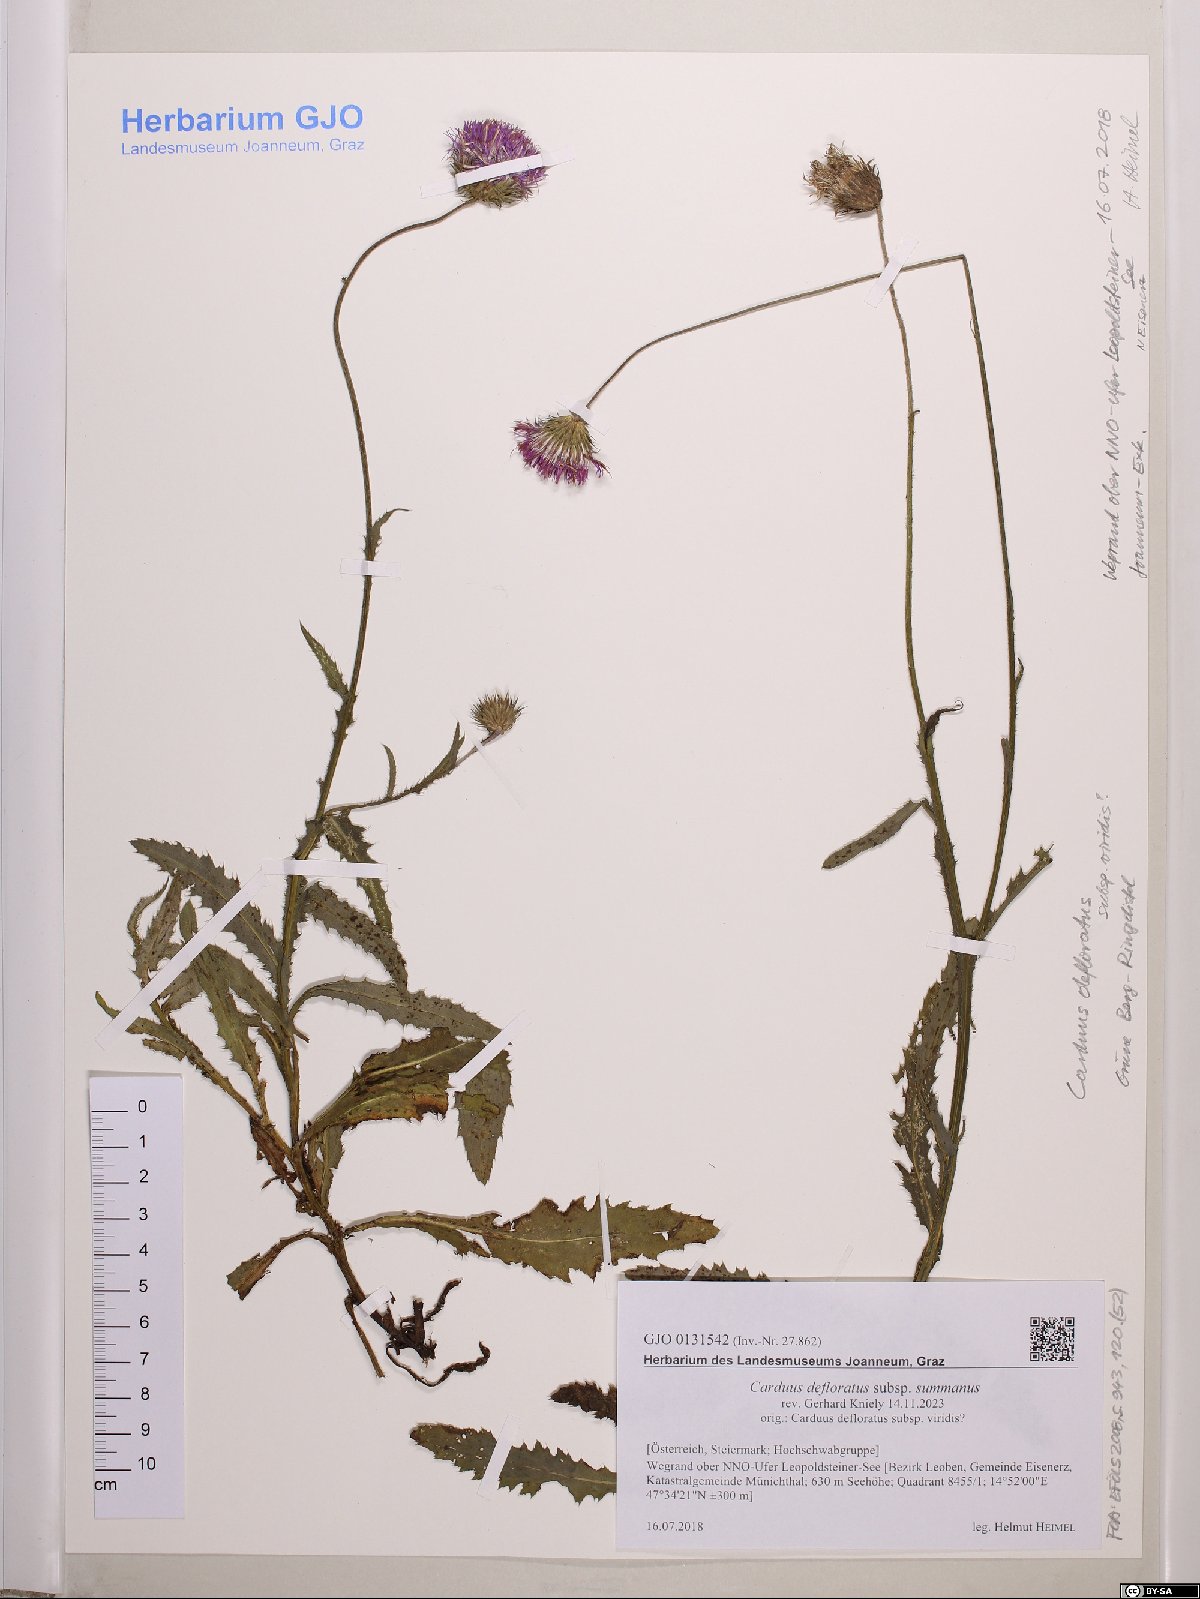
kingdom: Plantae
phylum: Tracheophyta
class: Magnoliopsida
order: Asterales
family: Asteraceae
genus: Carduus
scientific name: Carduus defloratus
